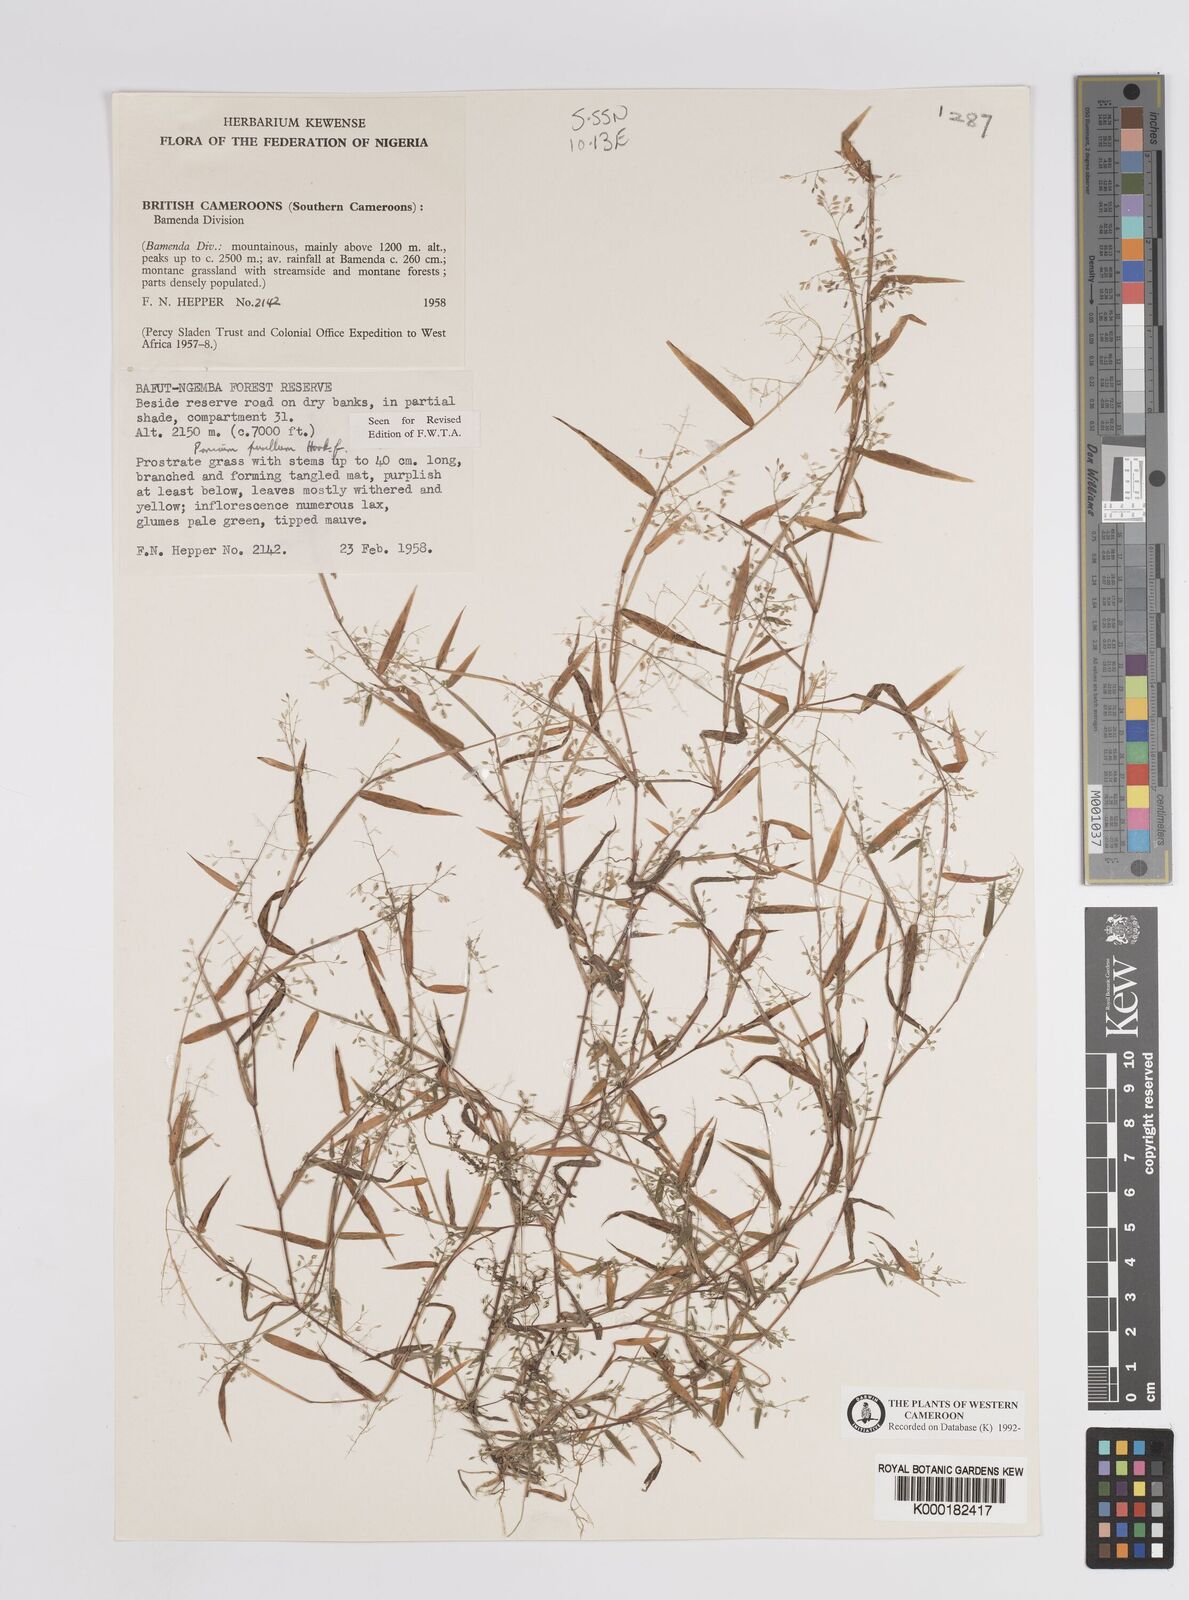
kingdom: Plantae
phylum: Tracheophyta
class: Liliopsida
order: Poales
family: Poaceae
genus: Panicum
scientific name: Panicum pusillum
